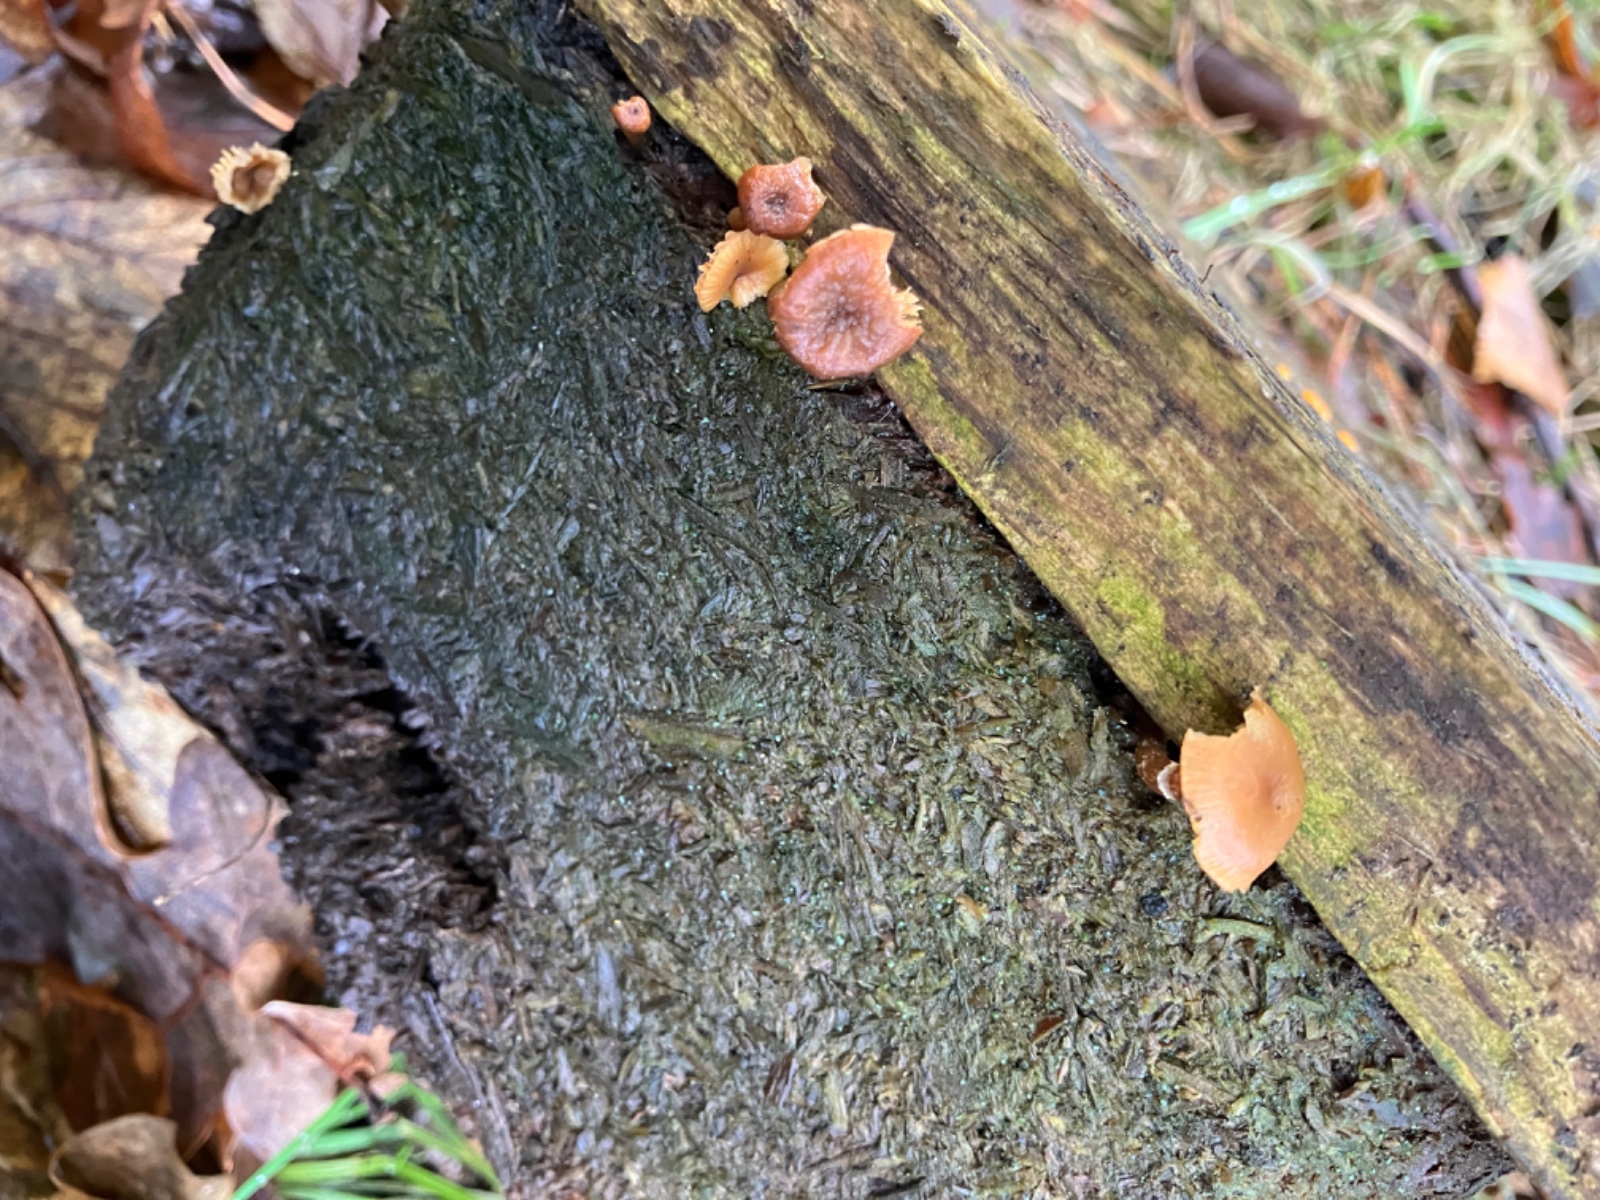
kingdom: Fungi
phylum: Basidiomycota
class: Agaricomycetes
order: Agaricales
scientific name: Agaricales
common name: champignonordenen
